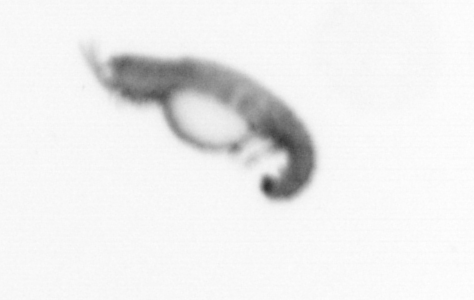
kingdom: Animalia
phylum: Annelida
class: Polychaeta
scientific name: Polychaeta
